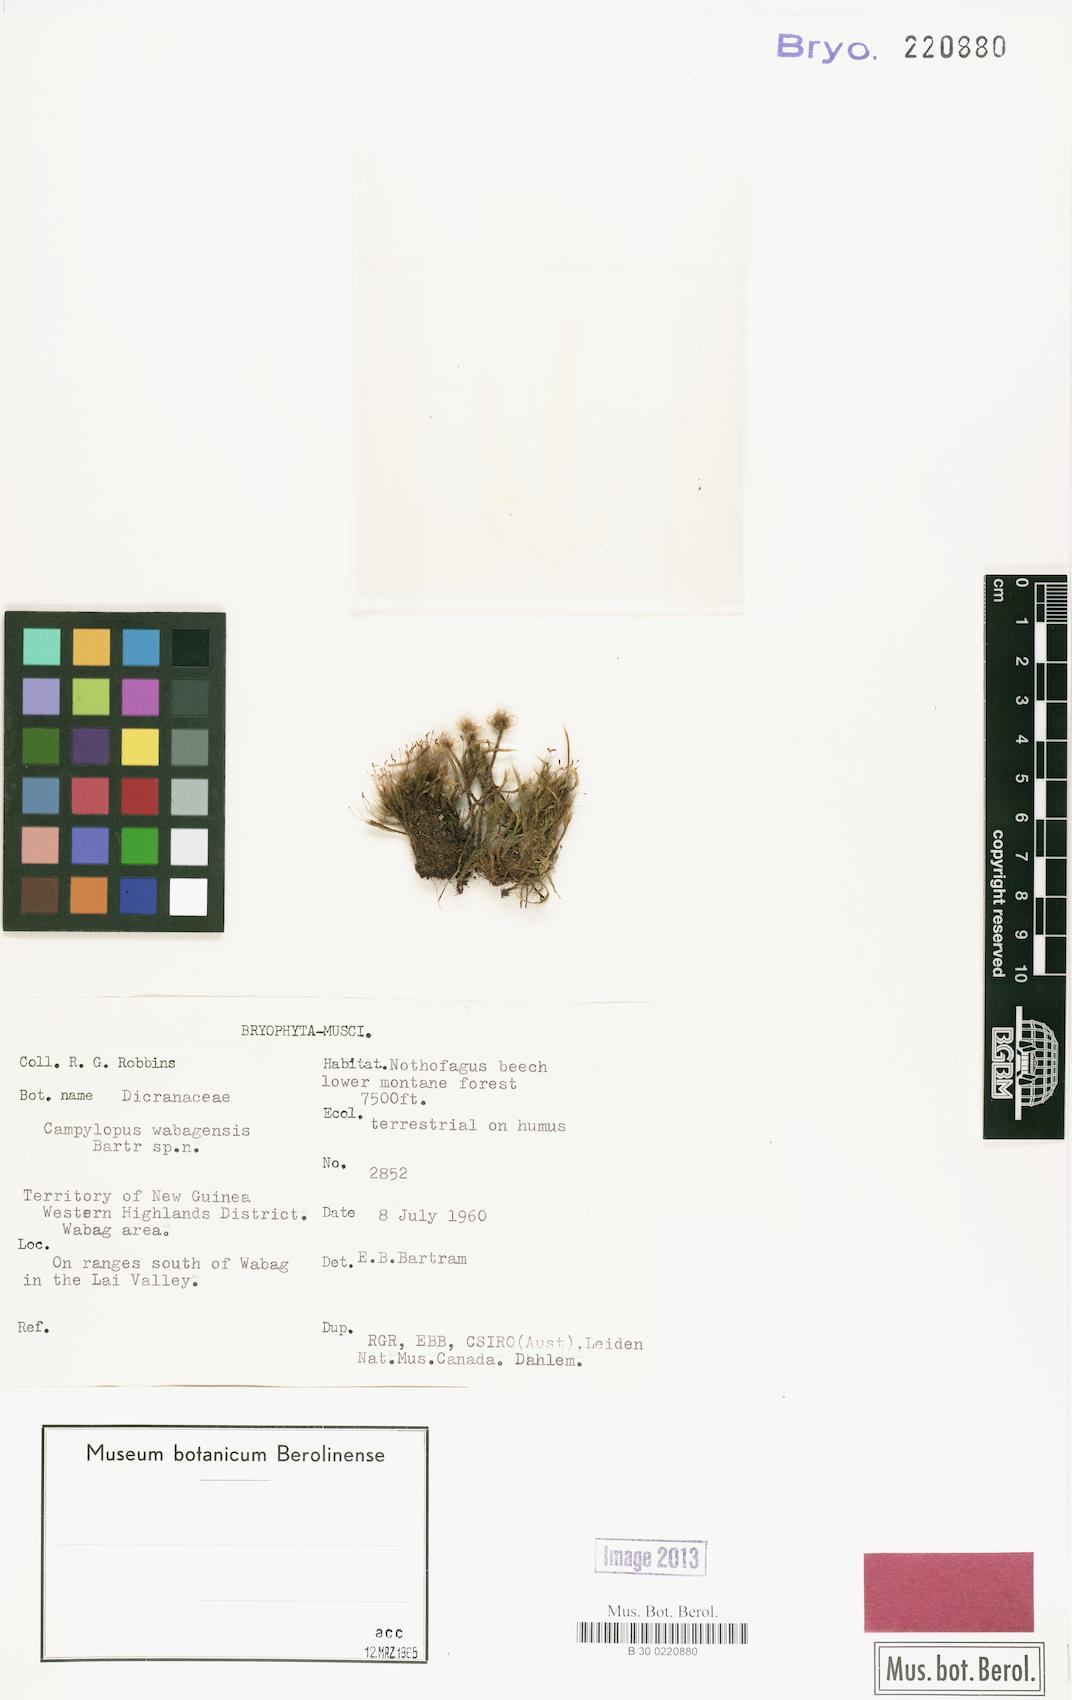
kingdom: Plantae
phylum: Bryophyta
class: Bryopsida
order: Dicranales
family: Leucobryaceae
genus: Campylopus
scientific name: Campylopus comosus
